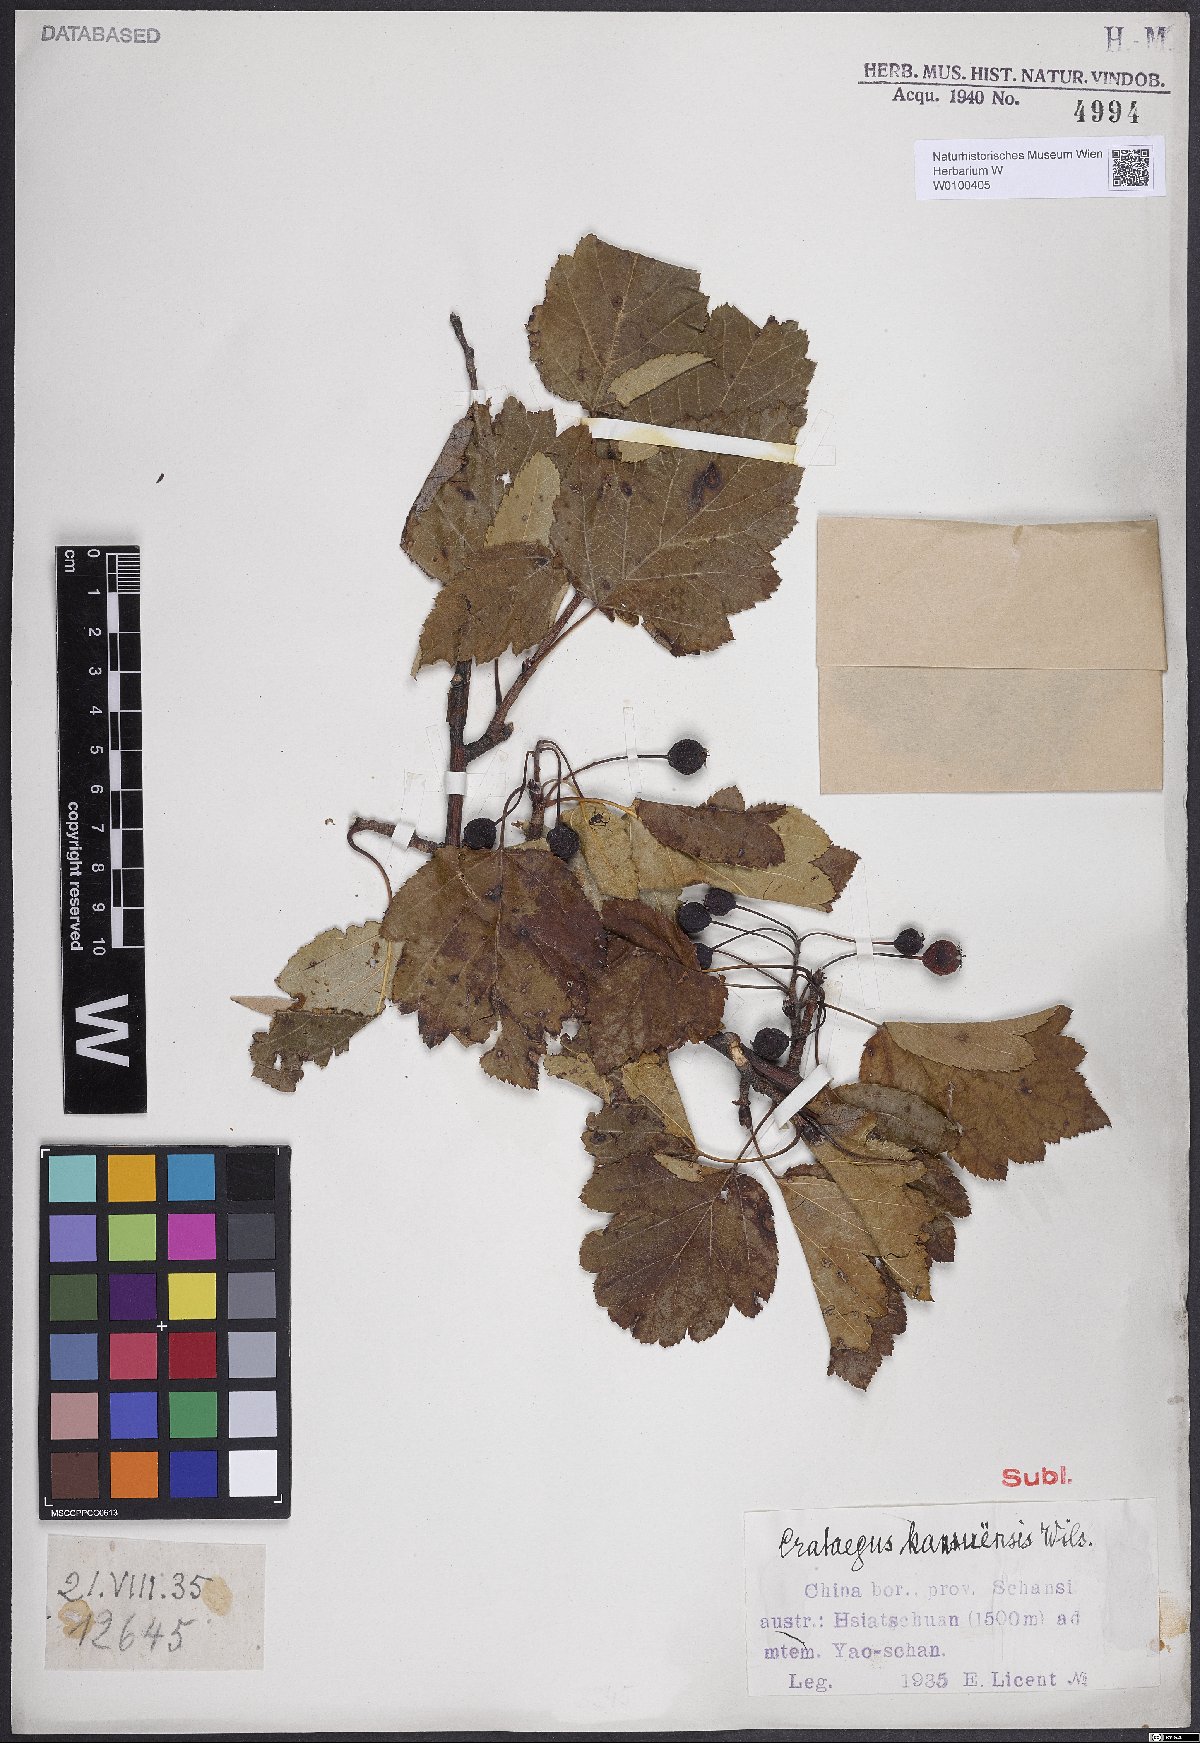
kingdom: Plantae
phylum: Tracheophyta
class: Magnoliopsida
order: Rosales
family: Rosaceae
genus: Crataegus
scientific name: Crataegus kansuensis
